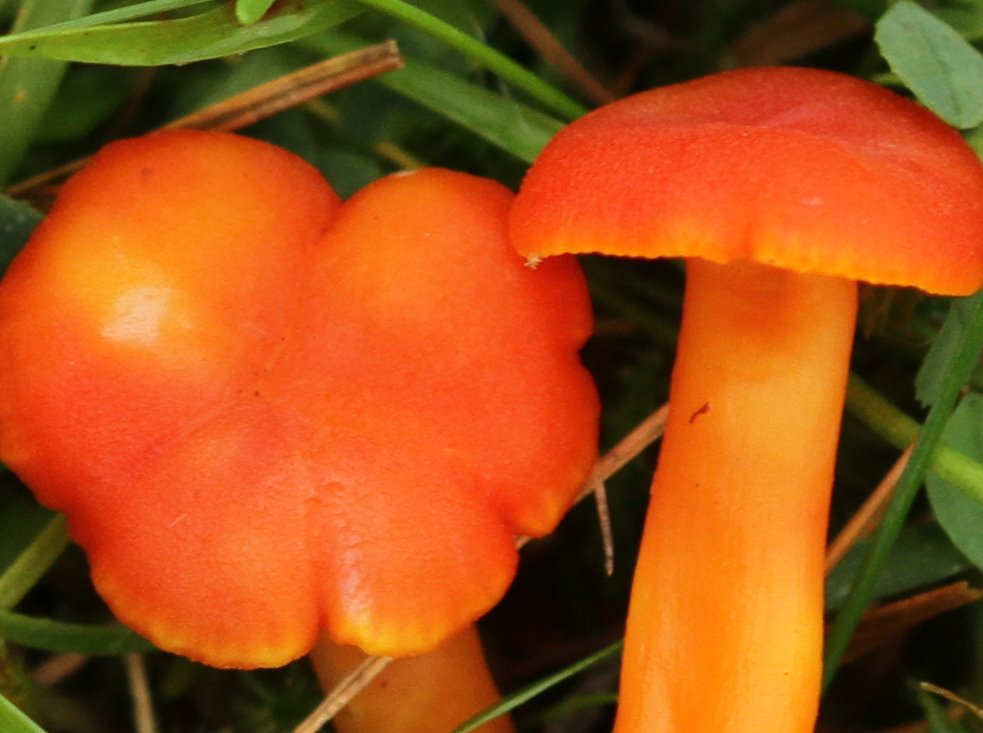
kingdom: Fungi
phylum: Basidiomycota
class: Agaricomycetes
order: Agaricales
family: Hygrophoraceae
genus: Hygrocybe
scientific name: Hygrocybe miniata
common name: mønje-vokshat
